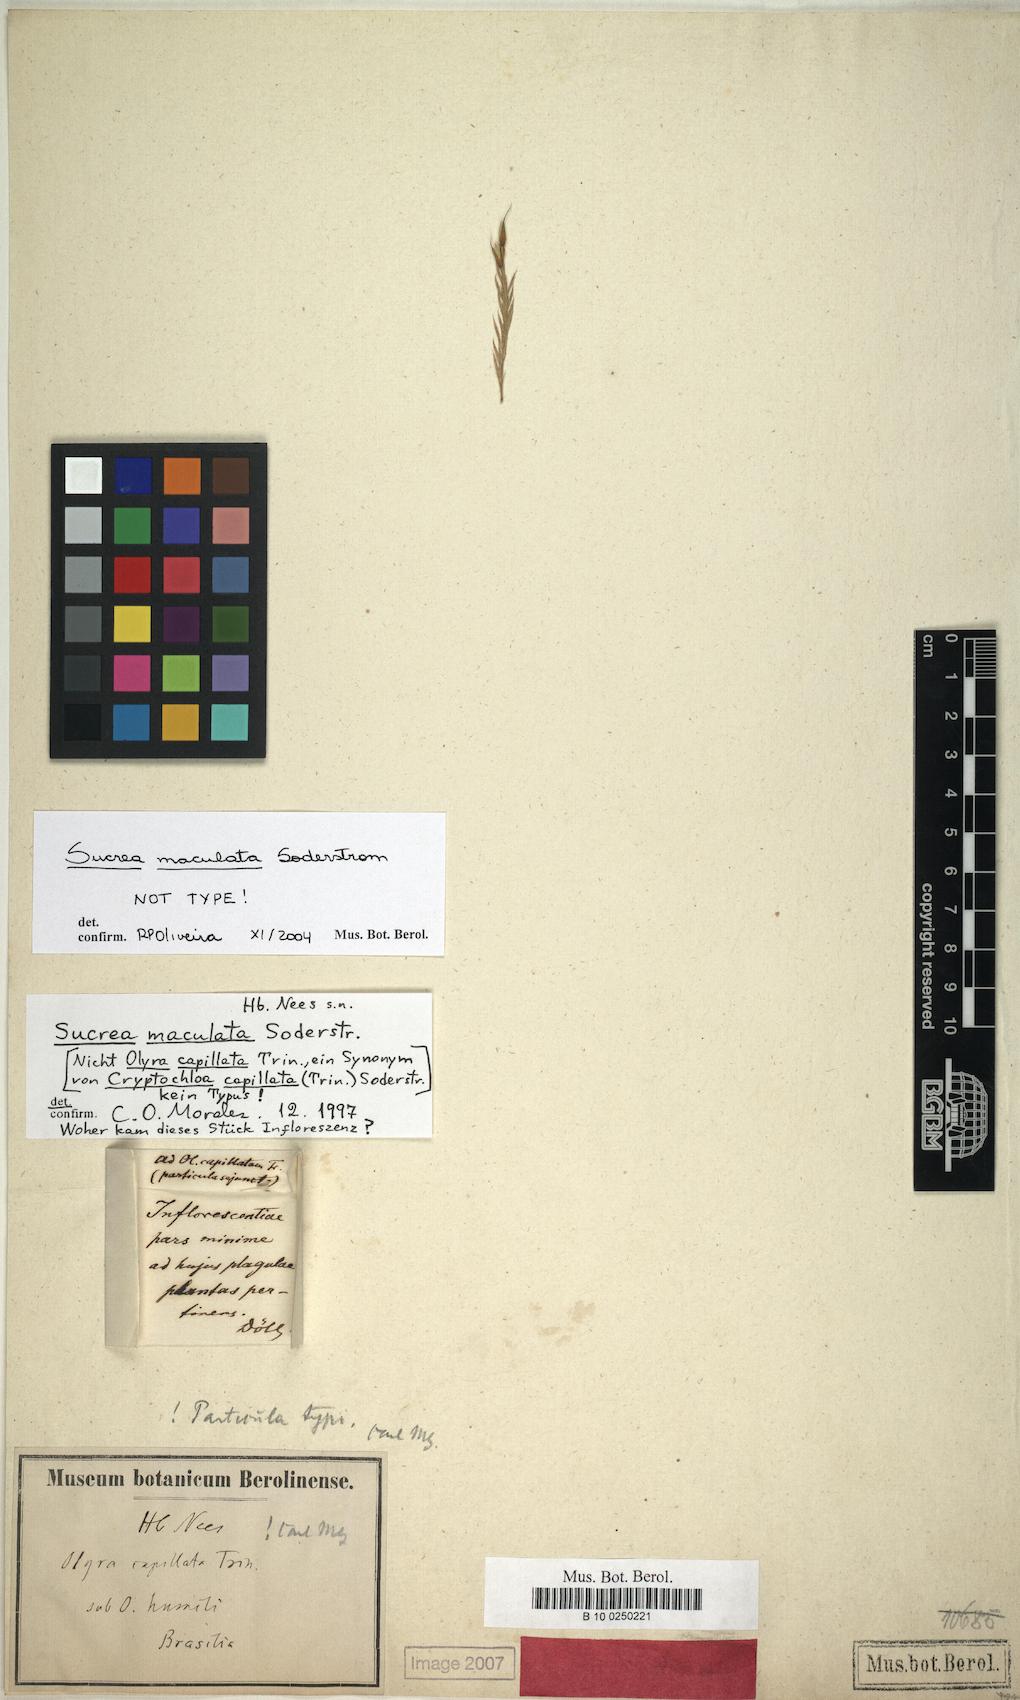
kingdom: Plantae
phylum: Tracheophyta
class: Liliopsida
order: Poales
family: Poaceae
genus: Raddia
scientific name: Raddia maculata
